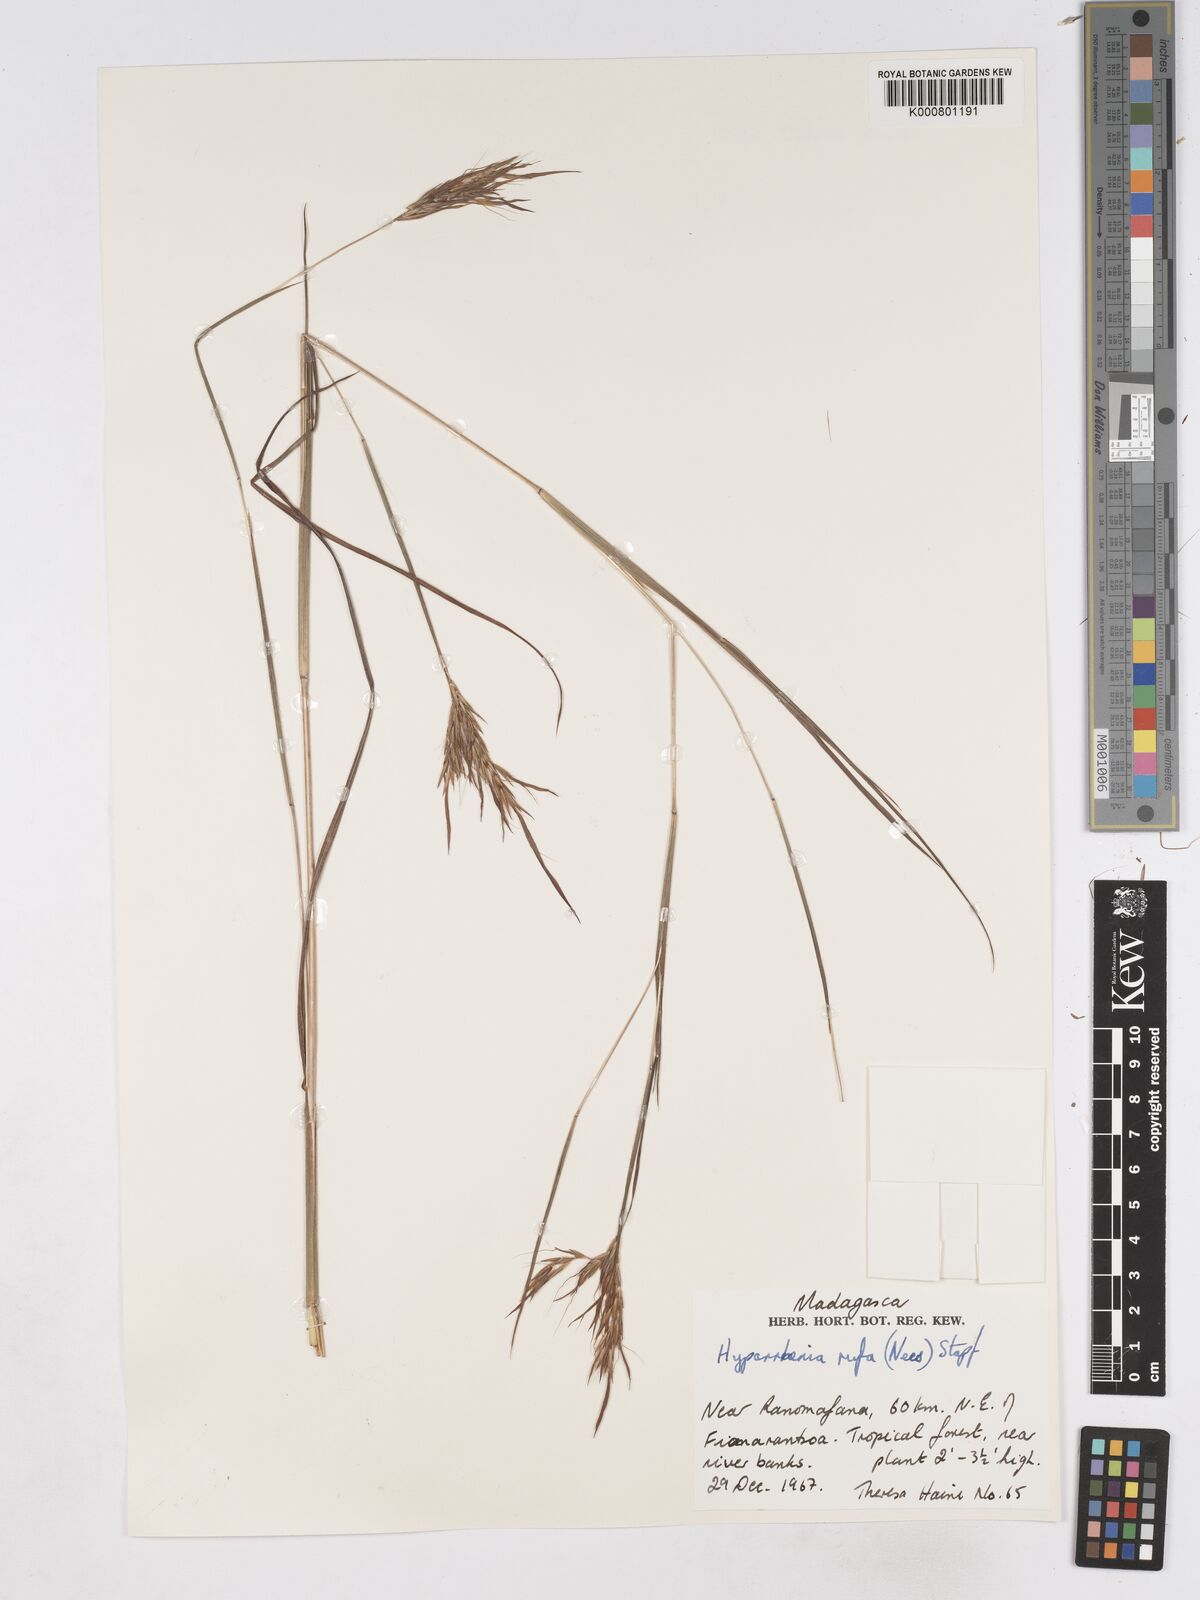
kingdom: Plantae
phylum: Tracheophyta
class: Liliopsida
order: Poales
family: Poaceae
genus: Hyparrhenia
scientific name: Hyparrhenia rufa
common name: Jaraguagrass
